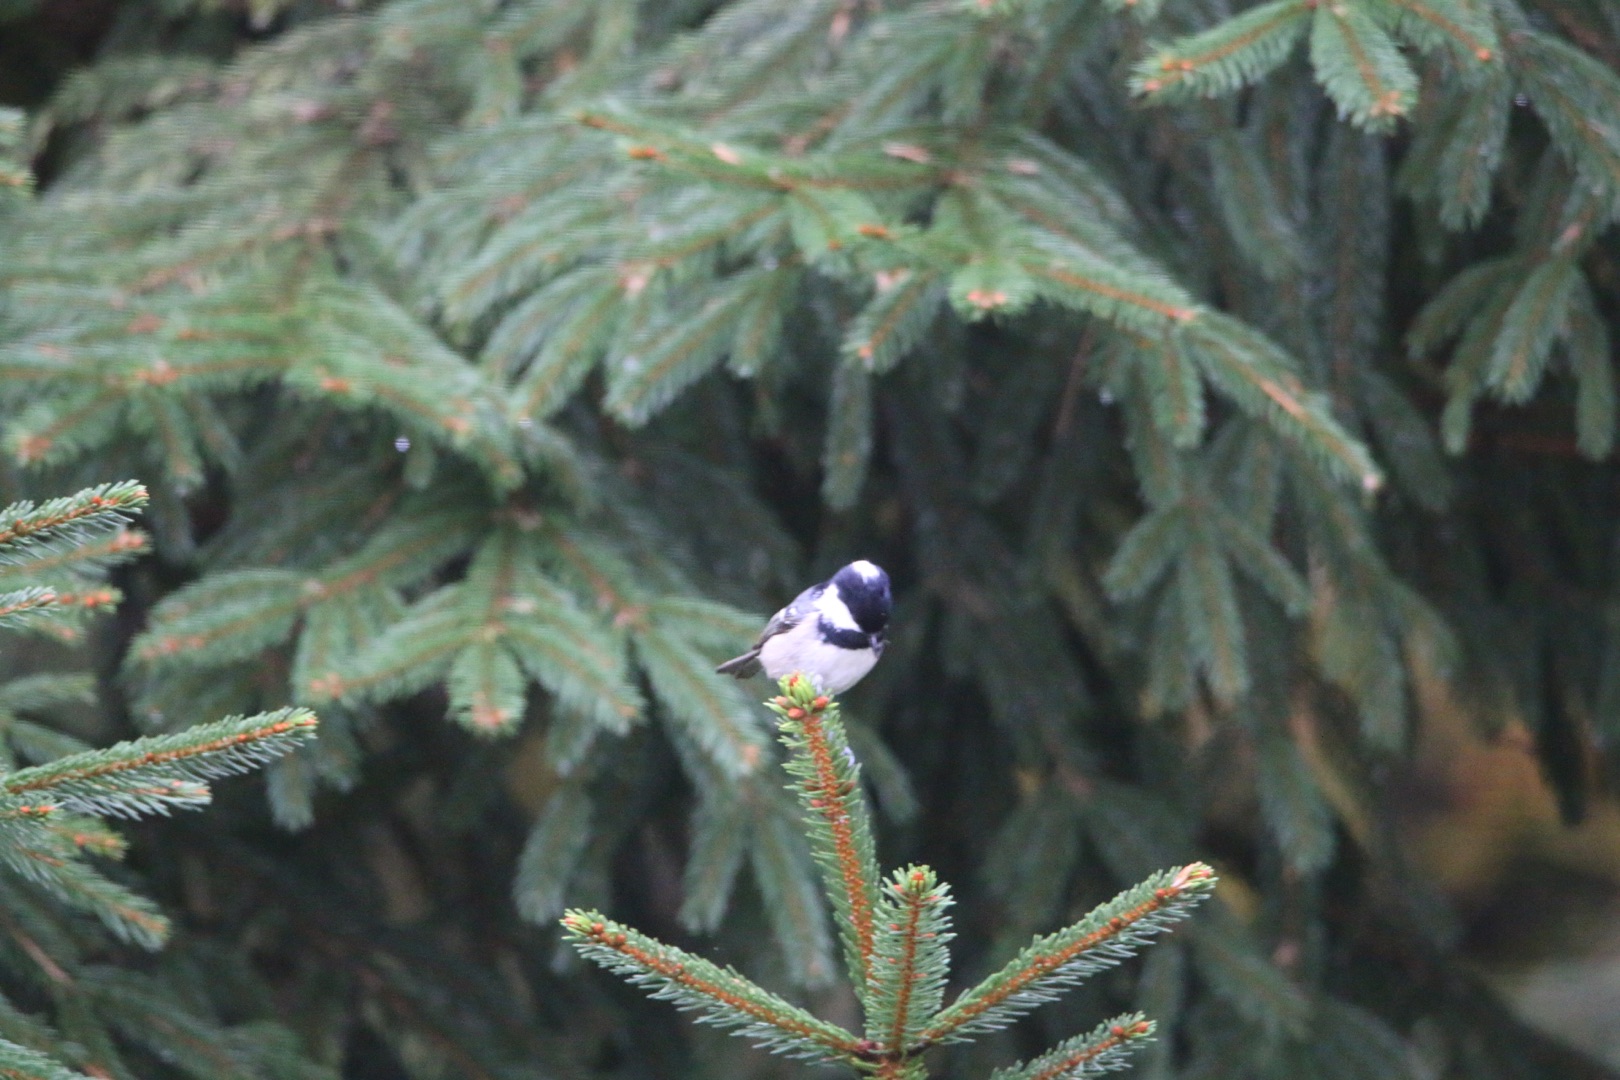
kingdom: Animalia
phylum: Chordata
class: Aves
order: Passeriformes
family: Paridae
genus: Periparus
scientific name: Periparus ater
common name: Sortmejse
